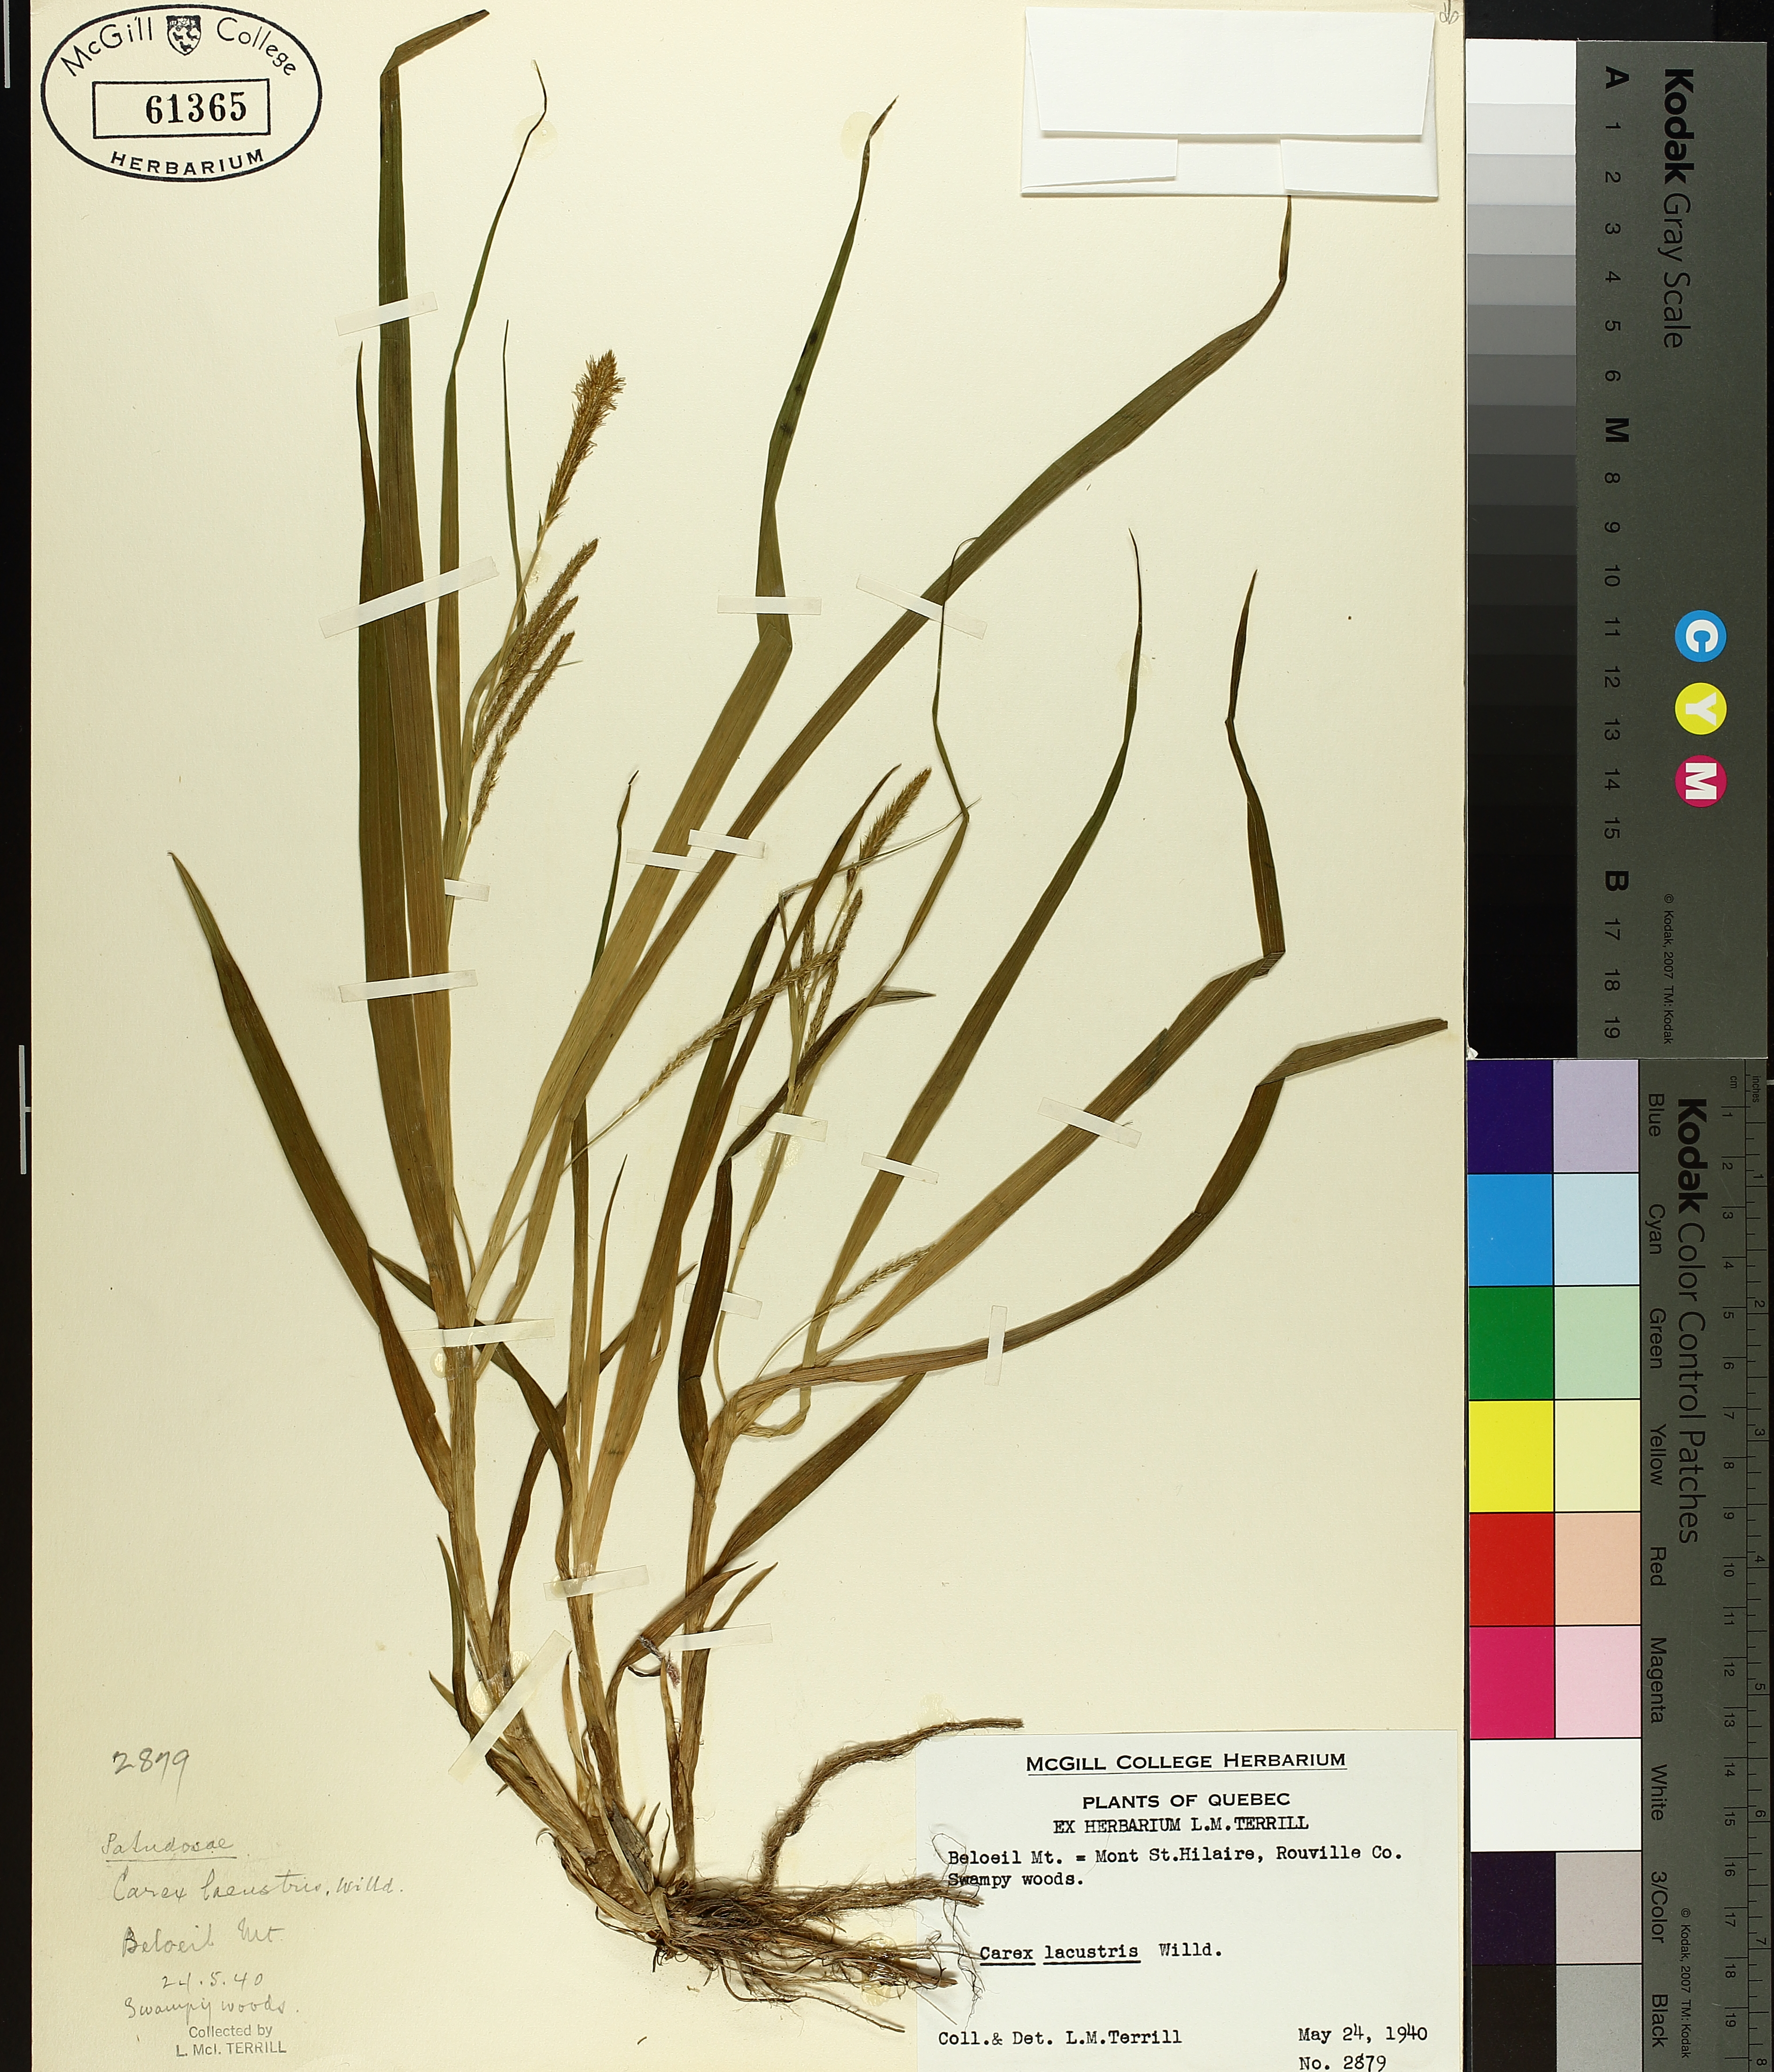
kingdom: Plantae
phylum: Tracheophyta
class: Liliopsida
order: Poales
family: Cyperaceae
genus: Carex
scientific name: Carex lacustris
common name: Common lake sedge
